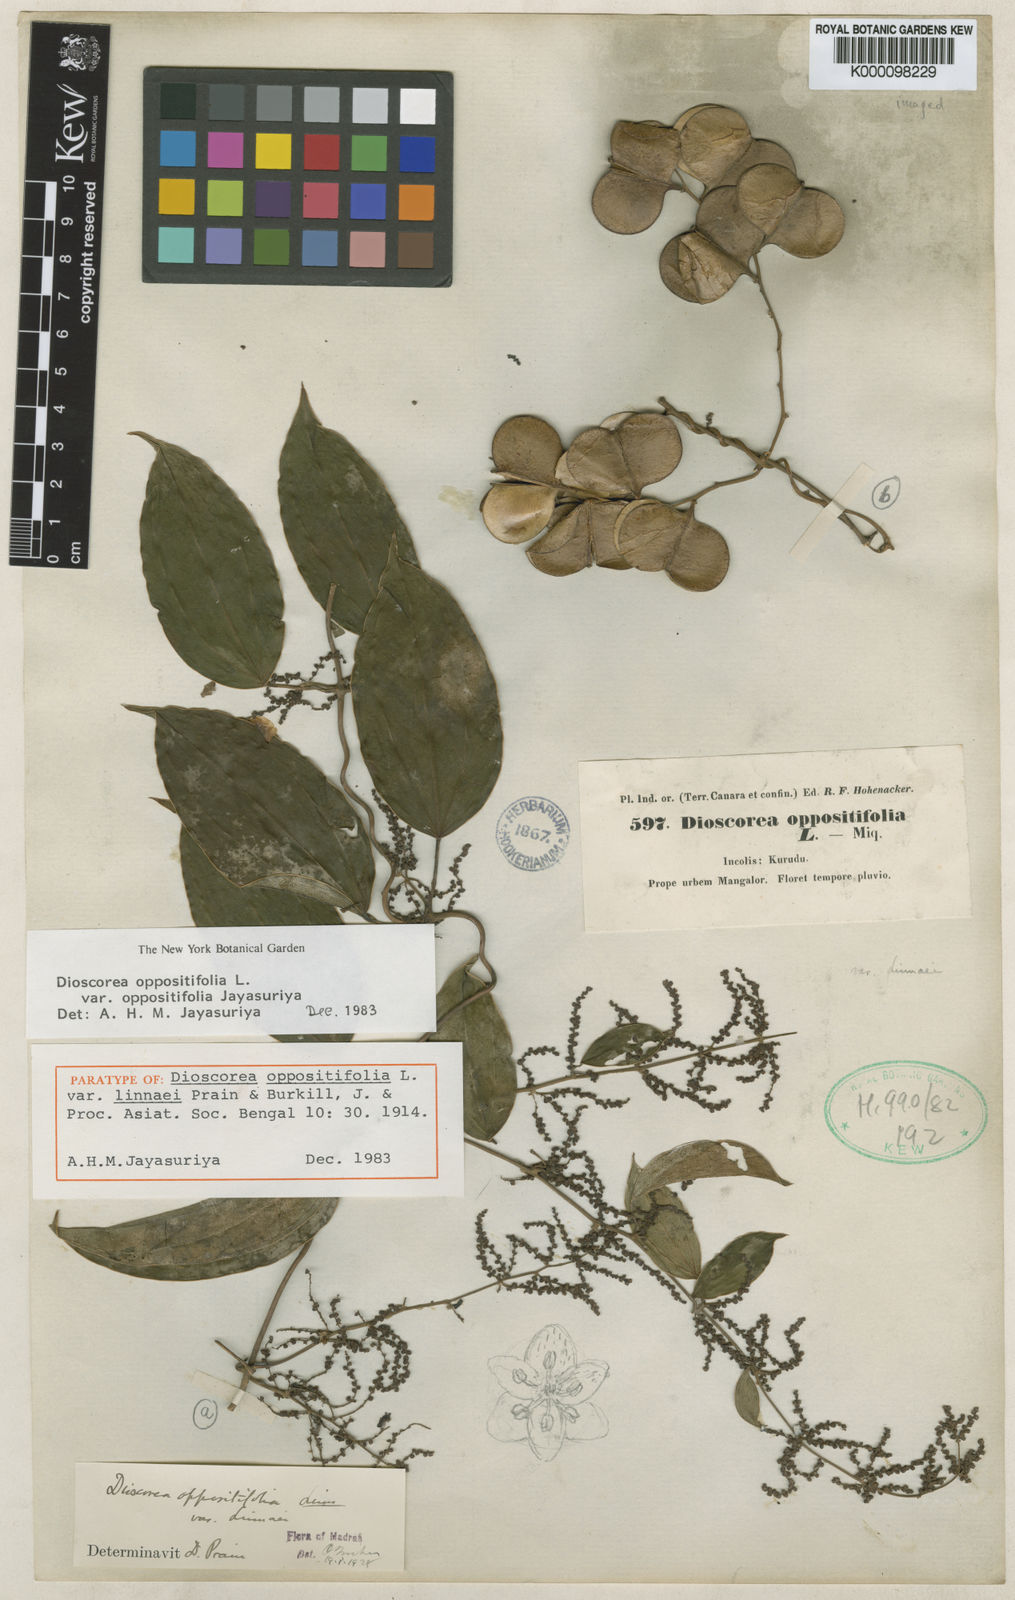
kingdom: Plantae
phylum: Tracheophyta
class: Liliopsida
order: Dioscoreales
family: Dioscoreaceae
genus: Dioscorea
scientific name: Dioscorea oppositifolia
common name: Chinese yam
